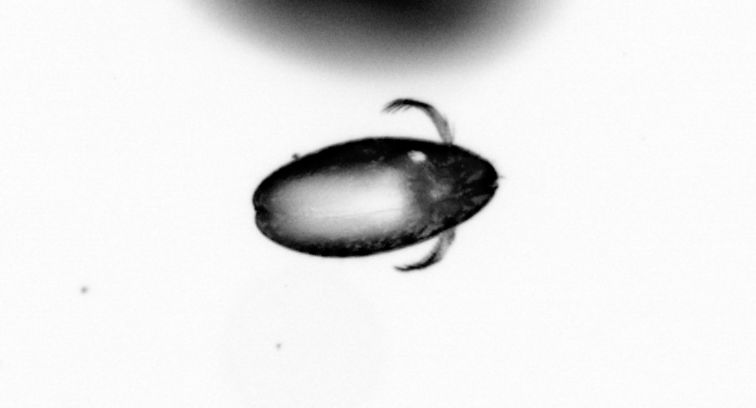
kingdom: Animalia
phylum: Arthropoda
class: Copepoda
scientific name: Copepoda
